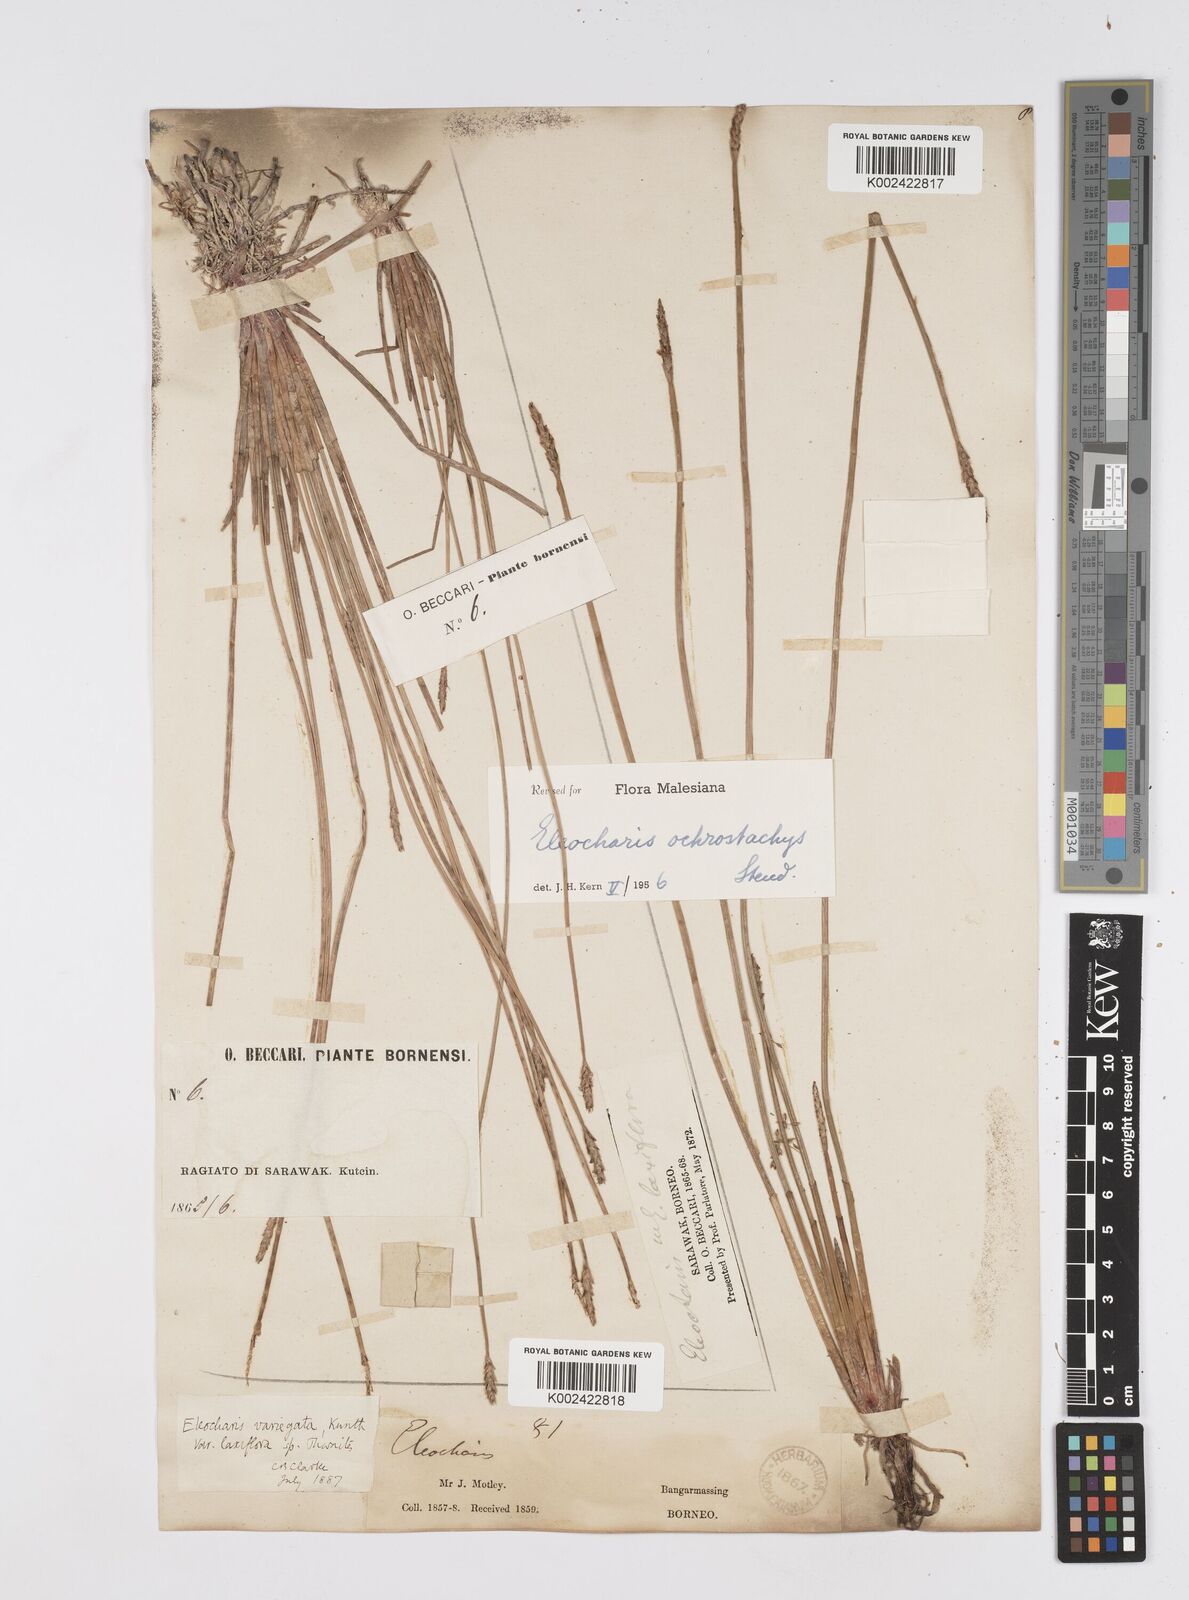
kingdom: Plantae
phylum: Tracheophyta
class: Liliopsida
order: Poales
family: Cyperaceae
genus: Eleocharis
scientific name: Eleocharis ochrostachys
